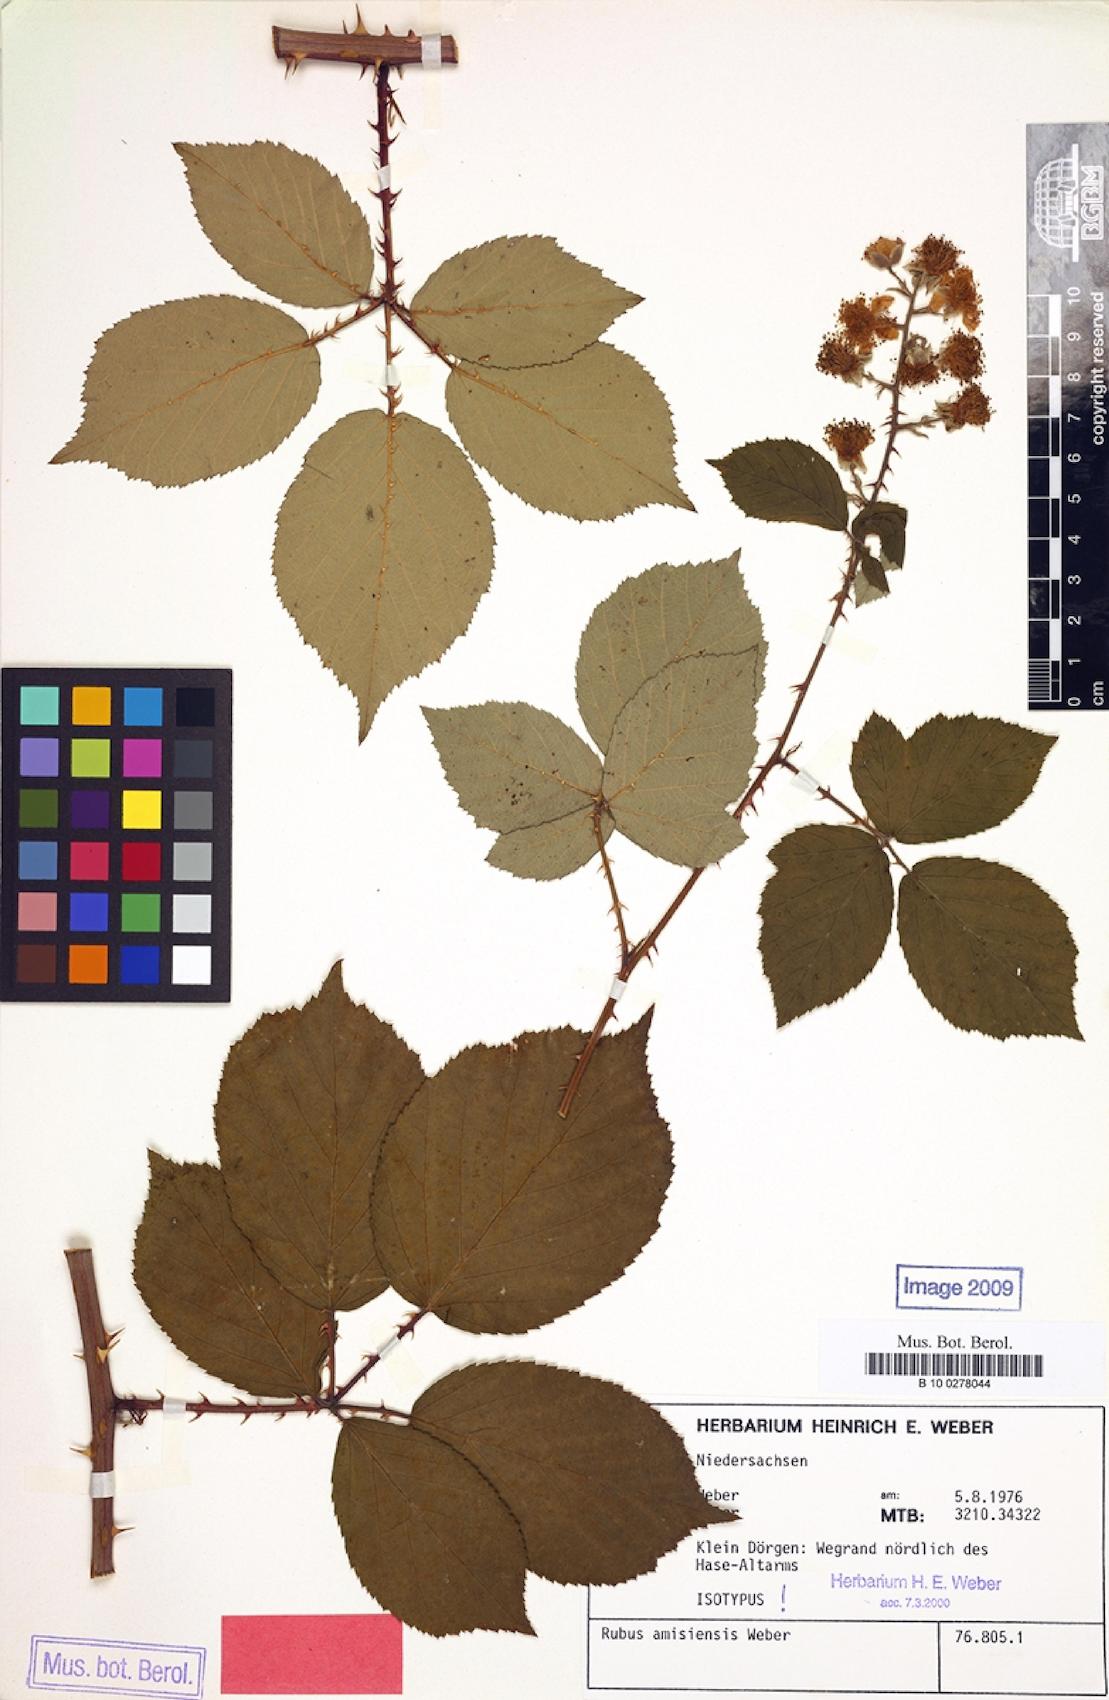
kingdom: Plantae
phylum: Tracheophyta
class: Magnoliopsida
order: Rosales
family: Rosaceae
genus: Rubus
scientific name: Rubus amisiensis
